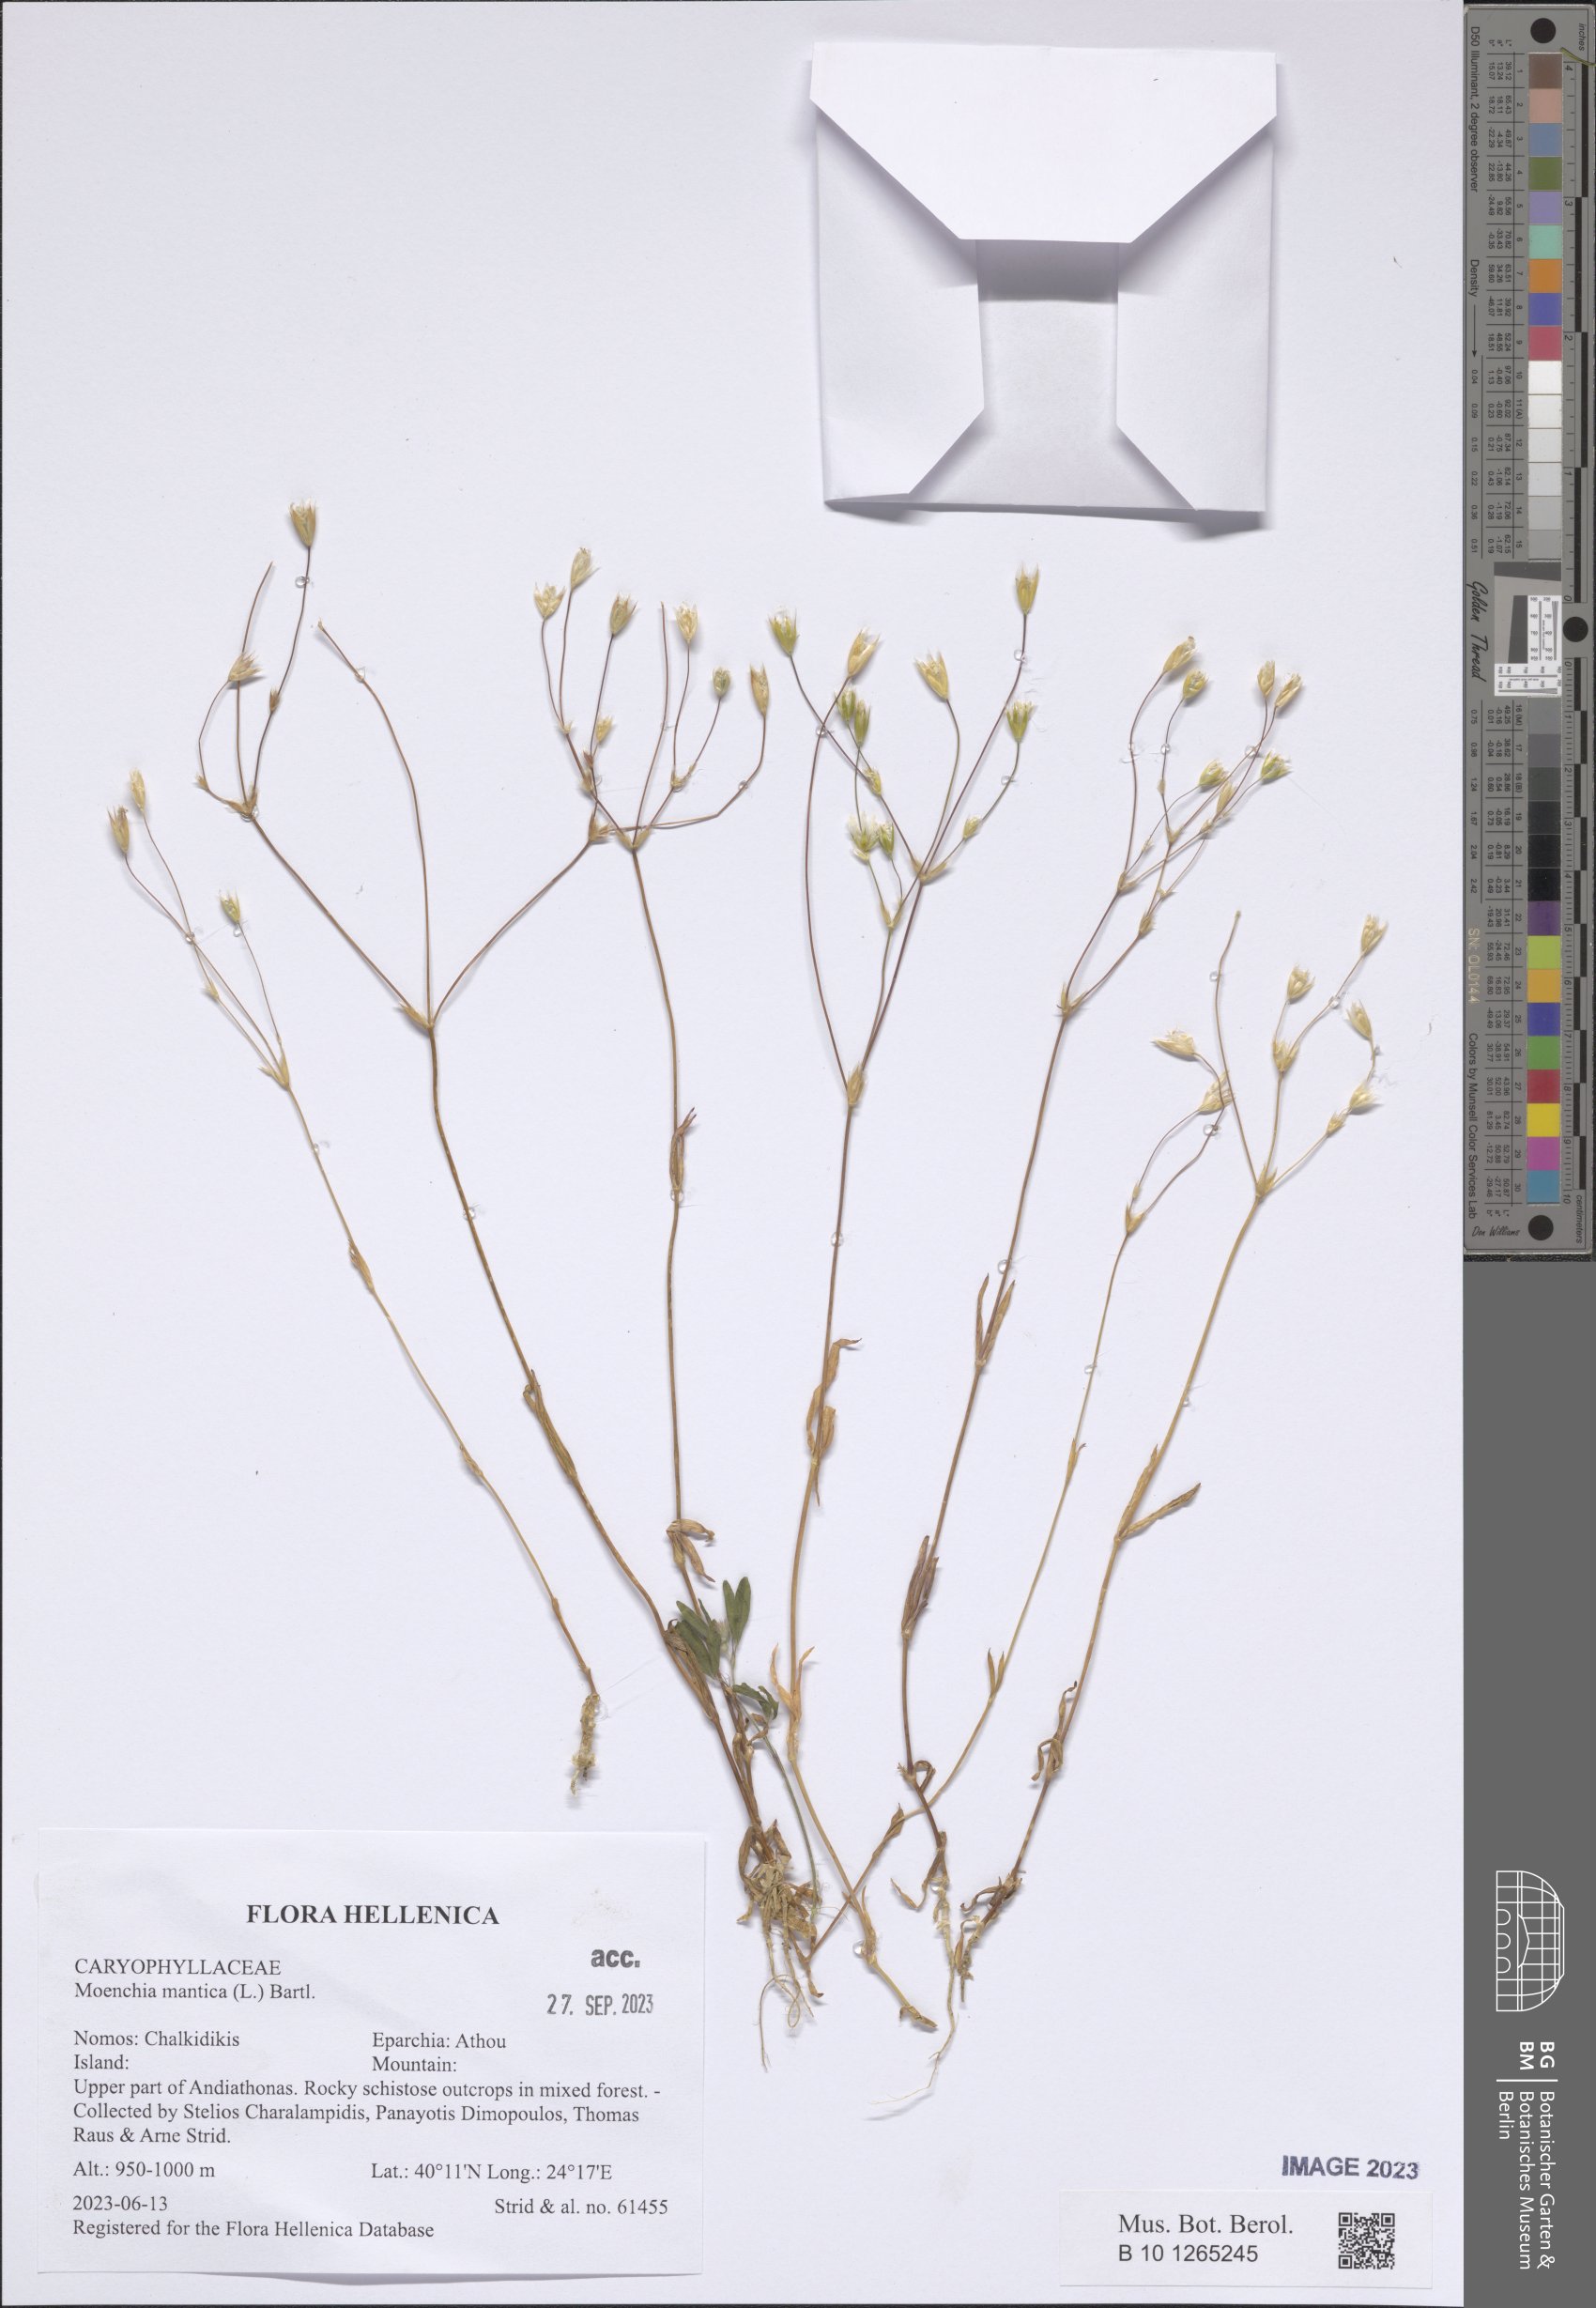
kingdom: Plantae
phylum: Tracheophyta
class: Magnoliopsida
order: Caryophyllales
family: Caryophyllaceae
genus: Moenchia
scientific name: Moenchia mantica
